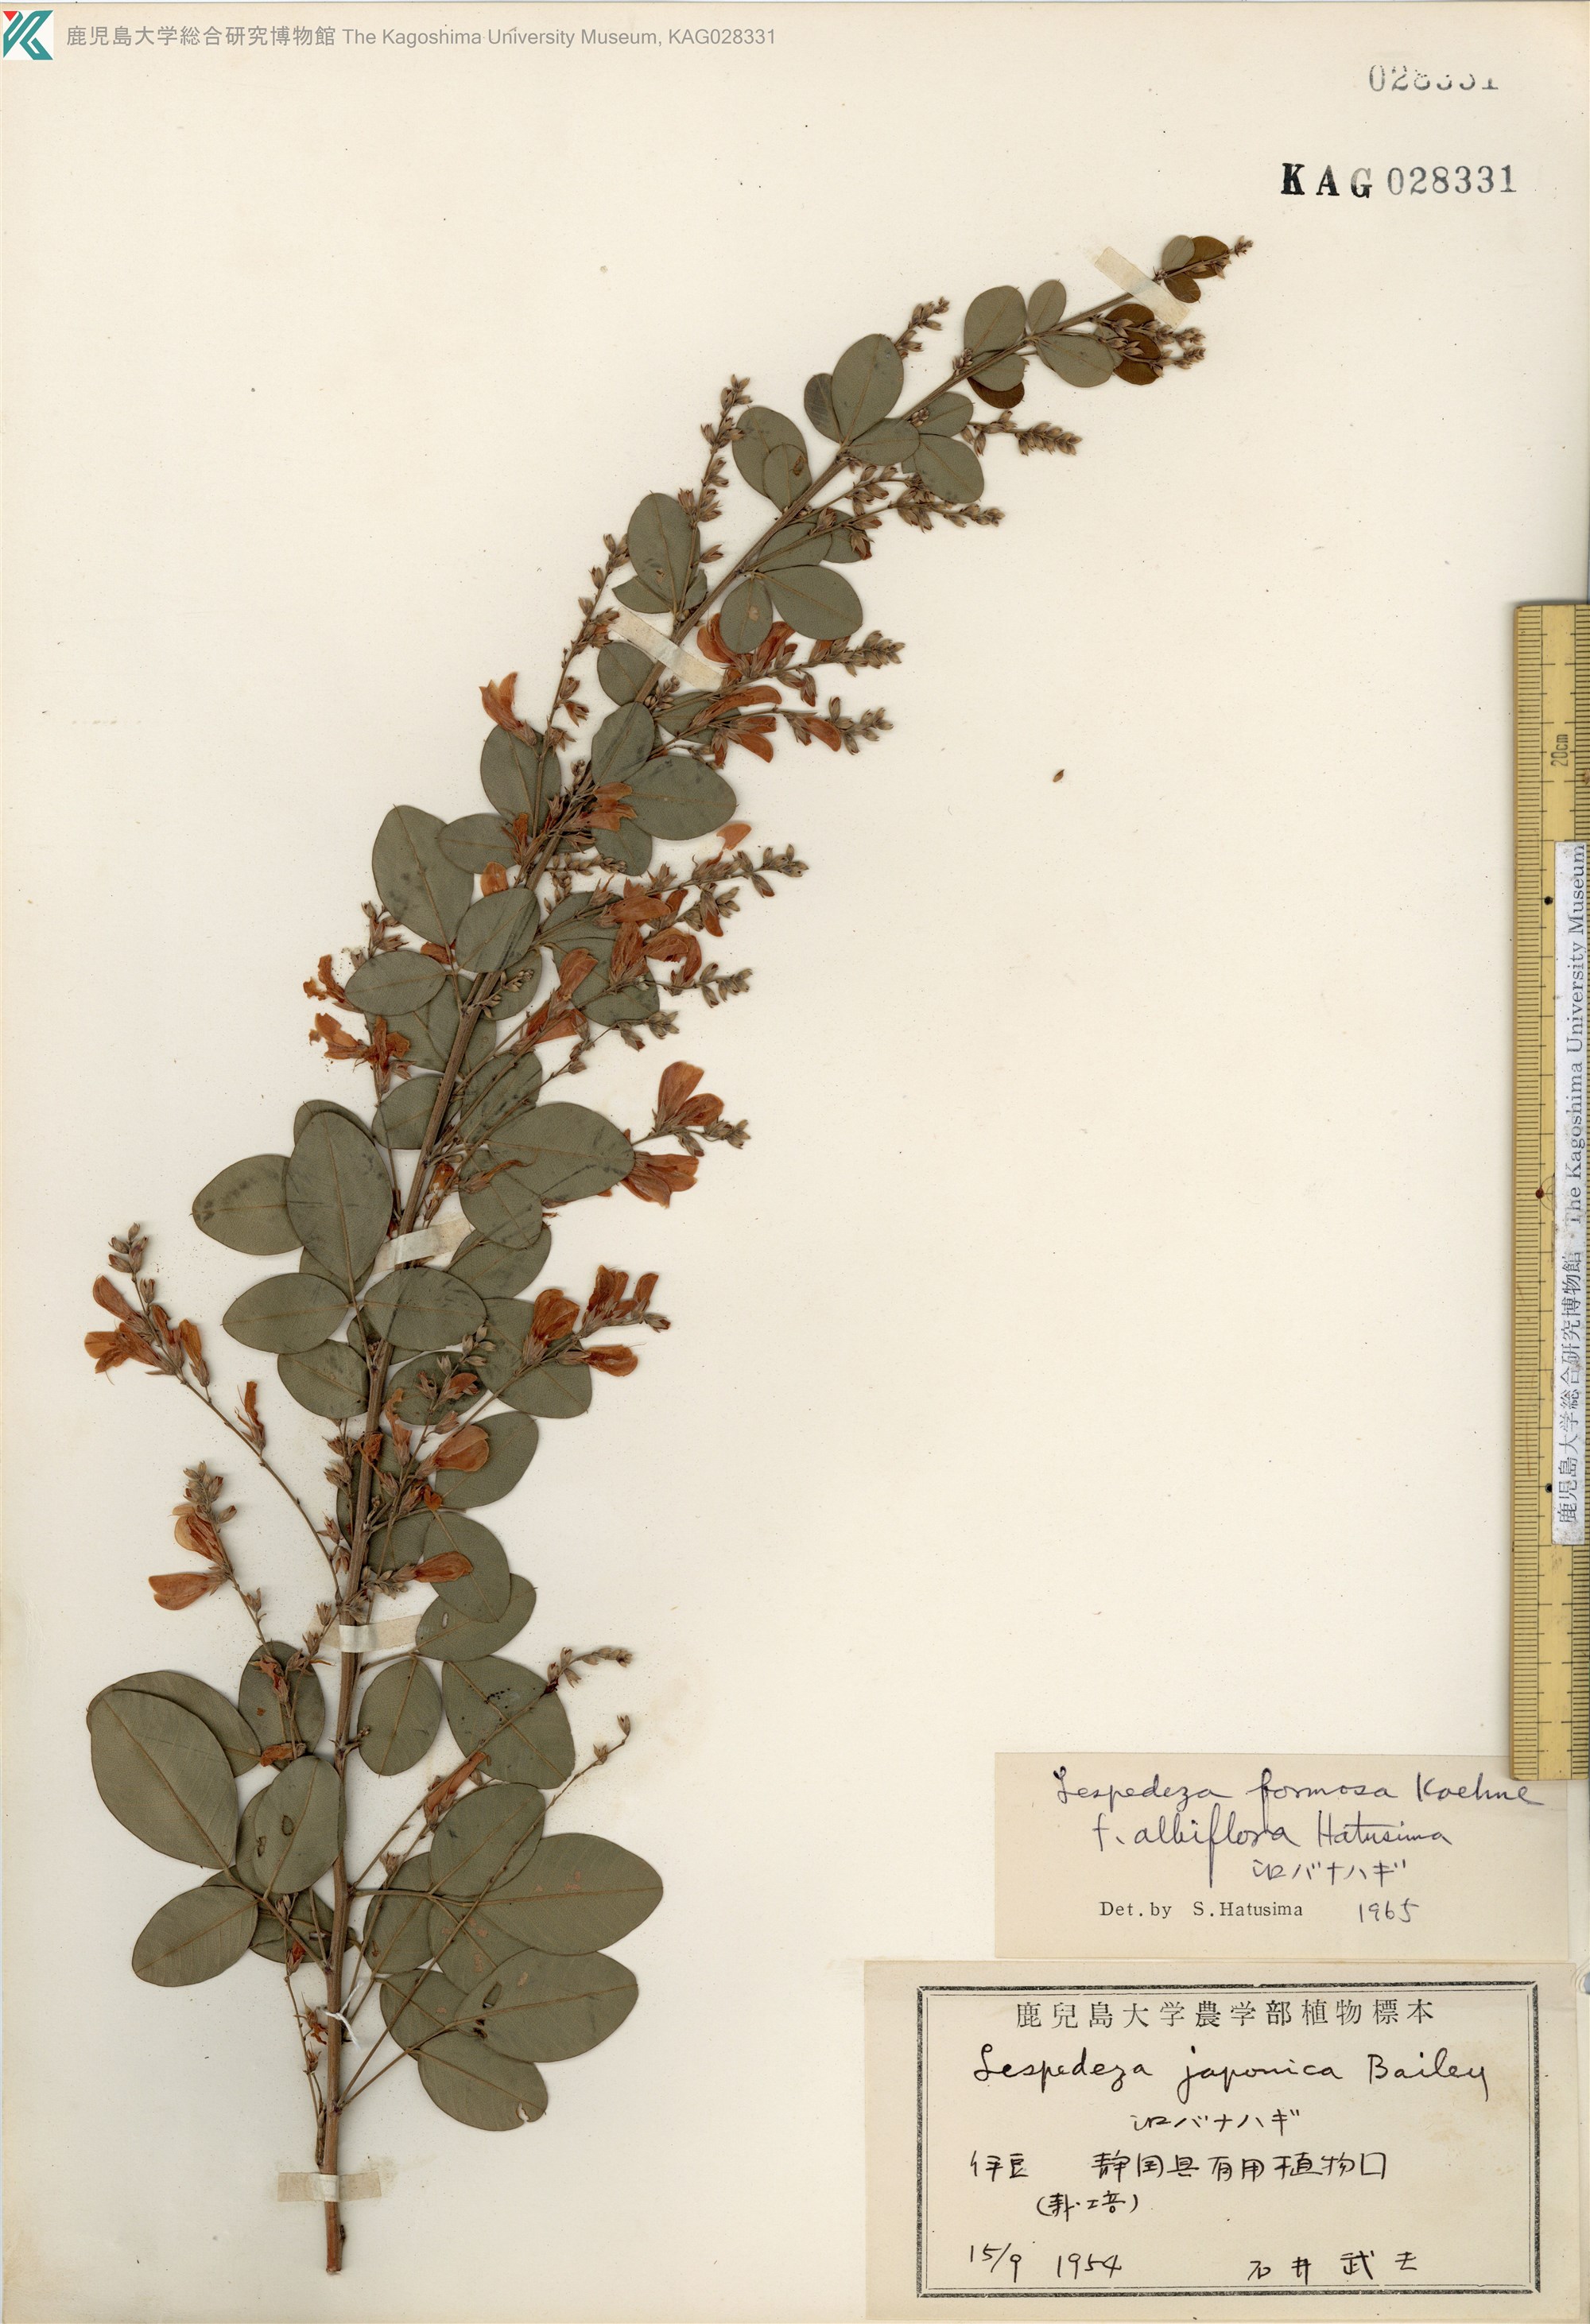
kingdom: Plantae
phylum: Tracheophyta
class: Magnoliopsida
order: Fabales
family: Fabaceae
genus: Lespedeza
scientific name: Lespedeza thunbergii
